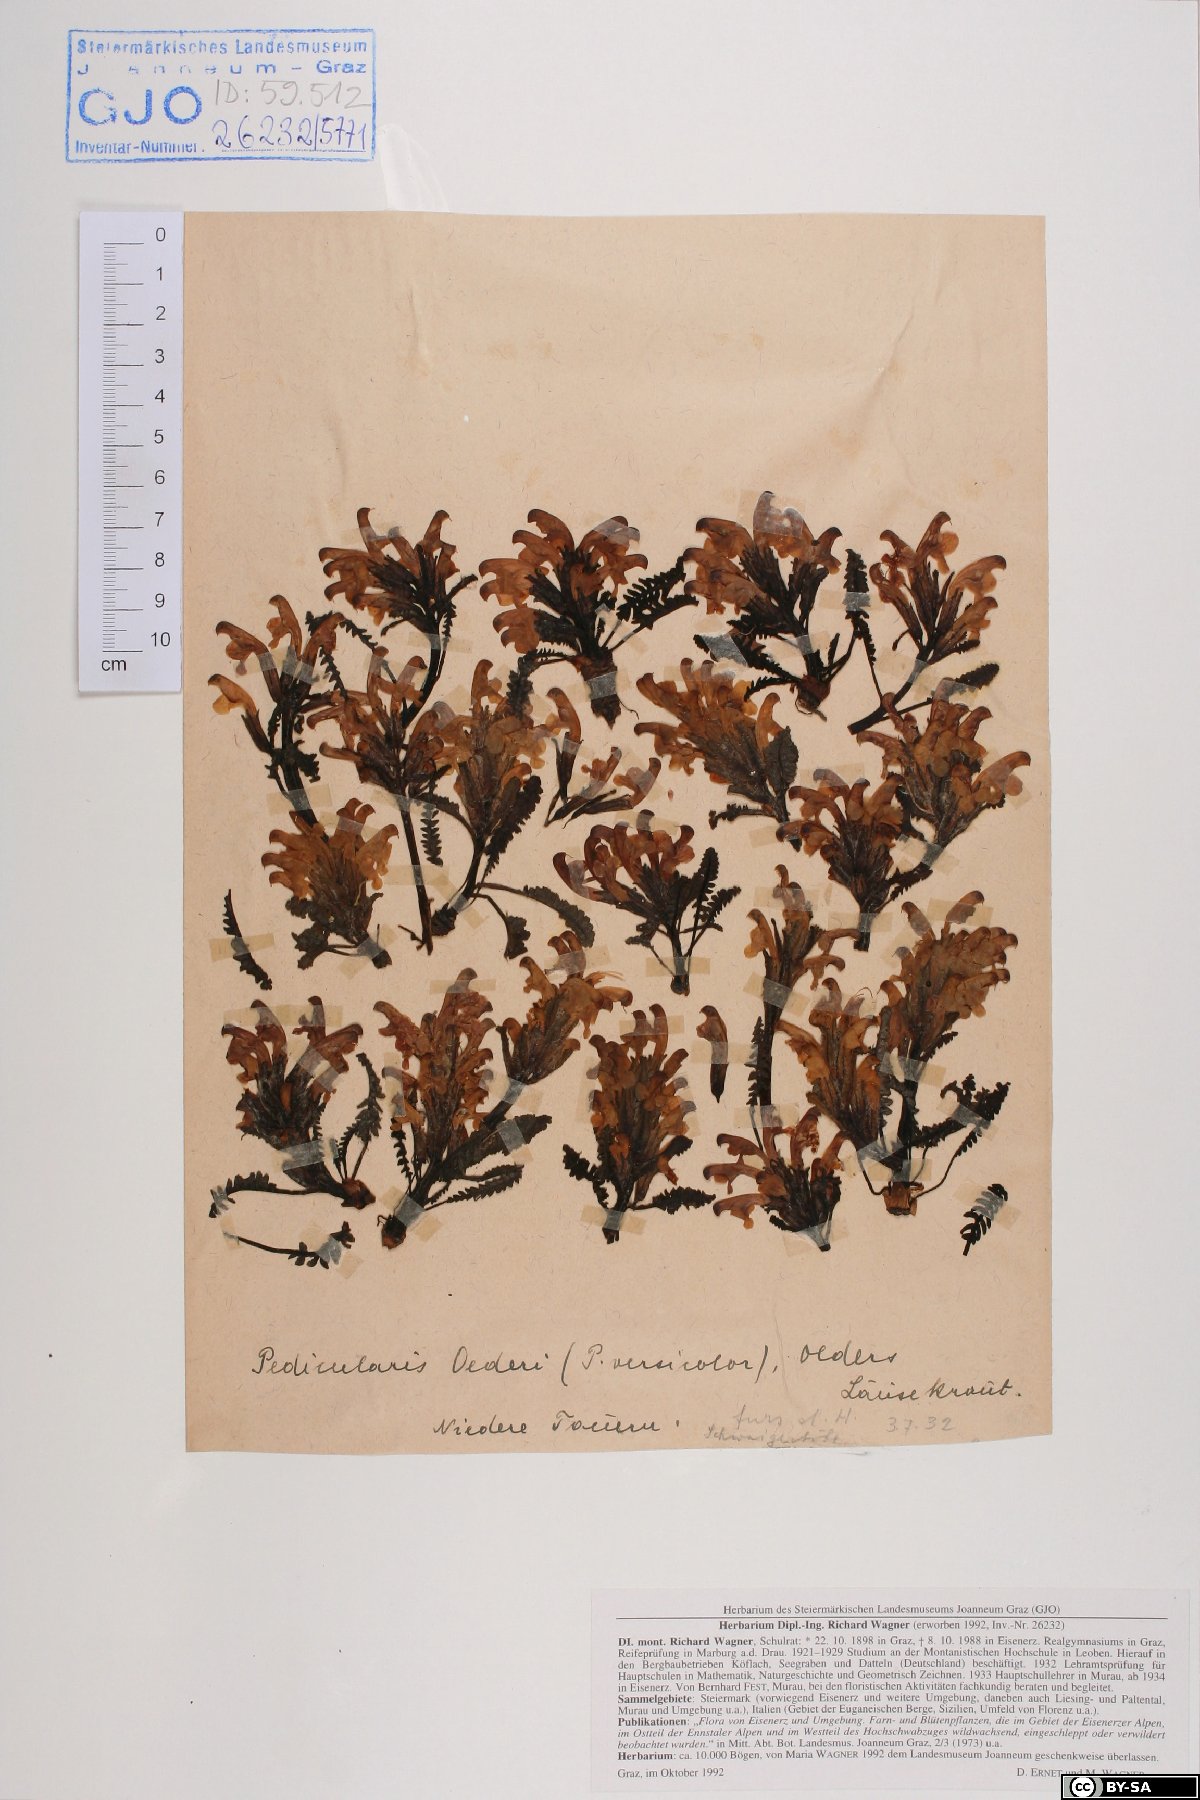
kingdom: Plantae
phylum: Tracheophyta
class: Magnoliopsida
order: Lamiales
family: Orobanchaceae
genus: Pedicularis
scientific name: Pedicularis oederi
